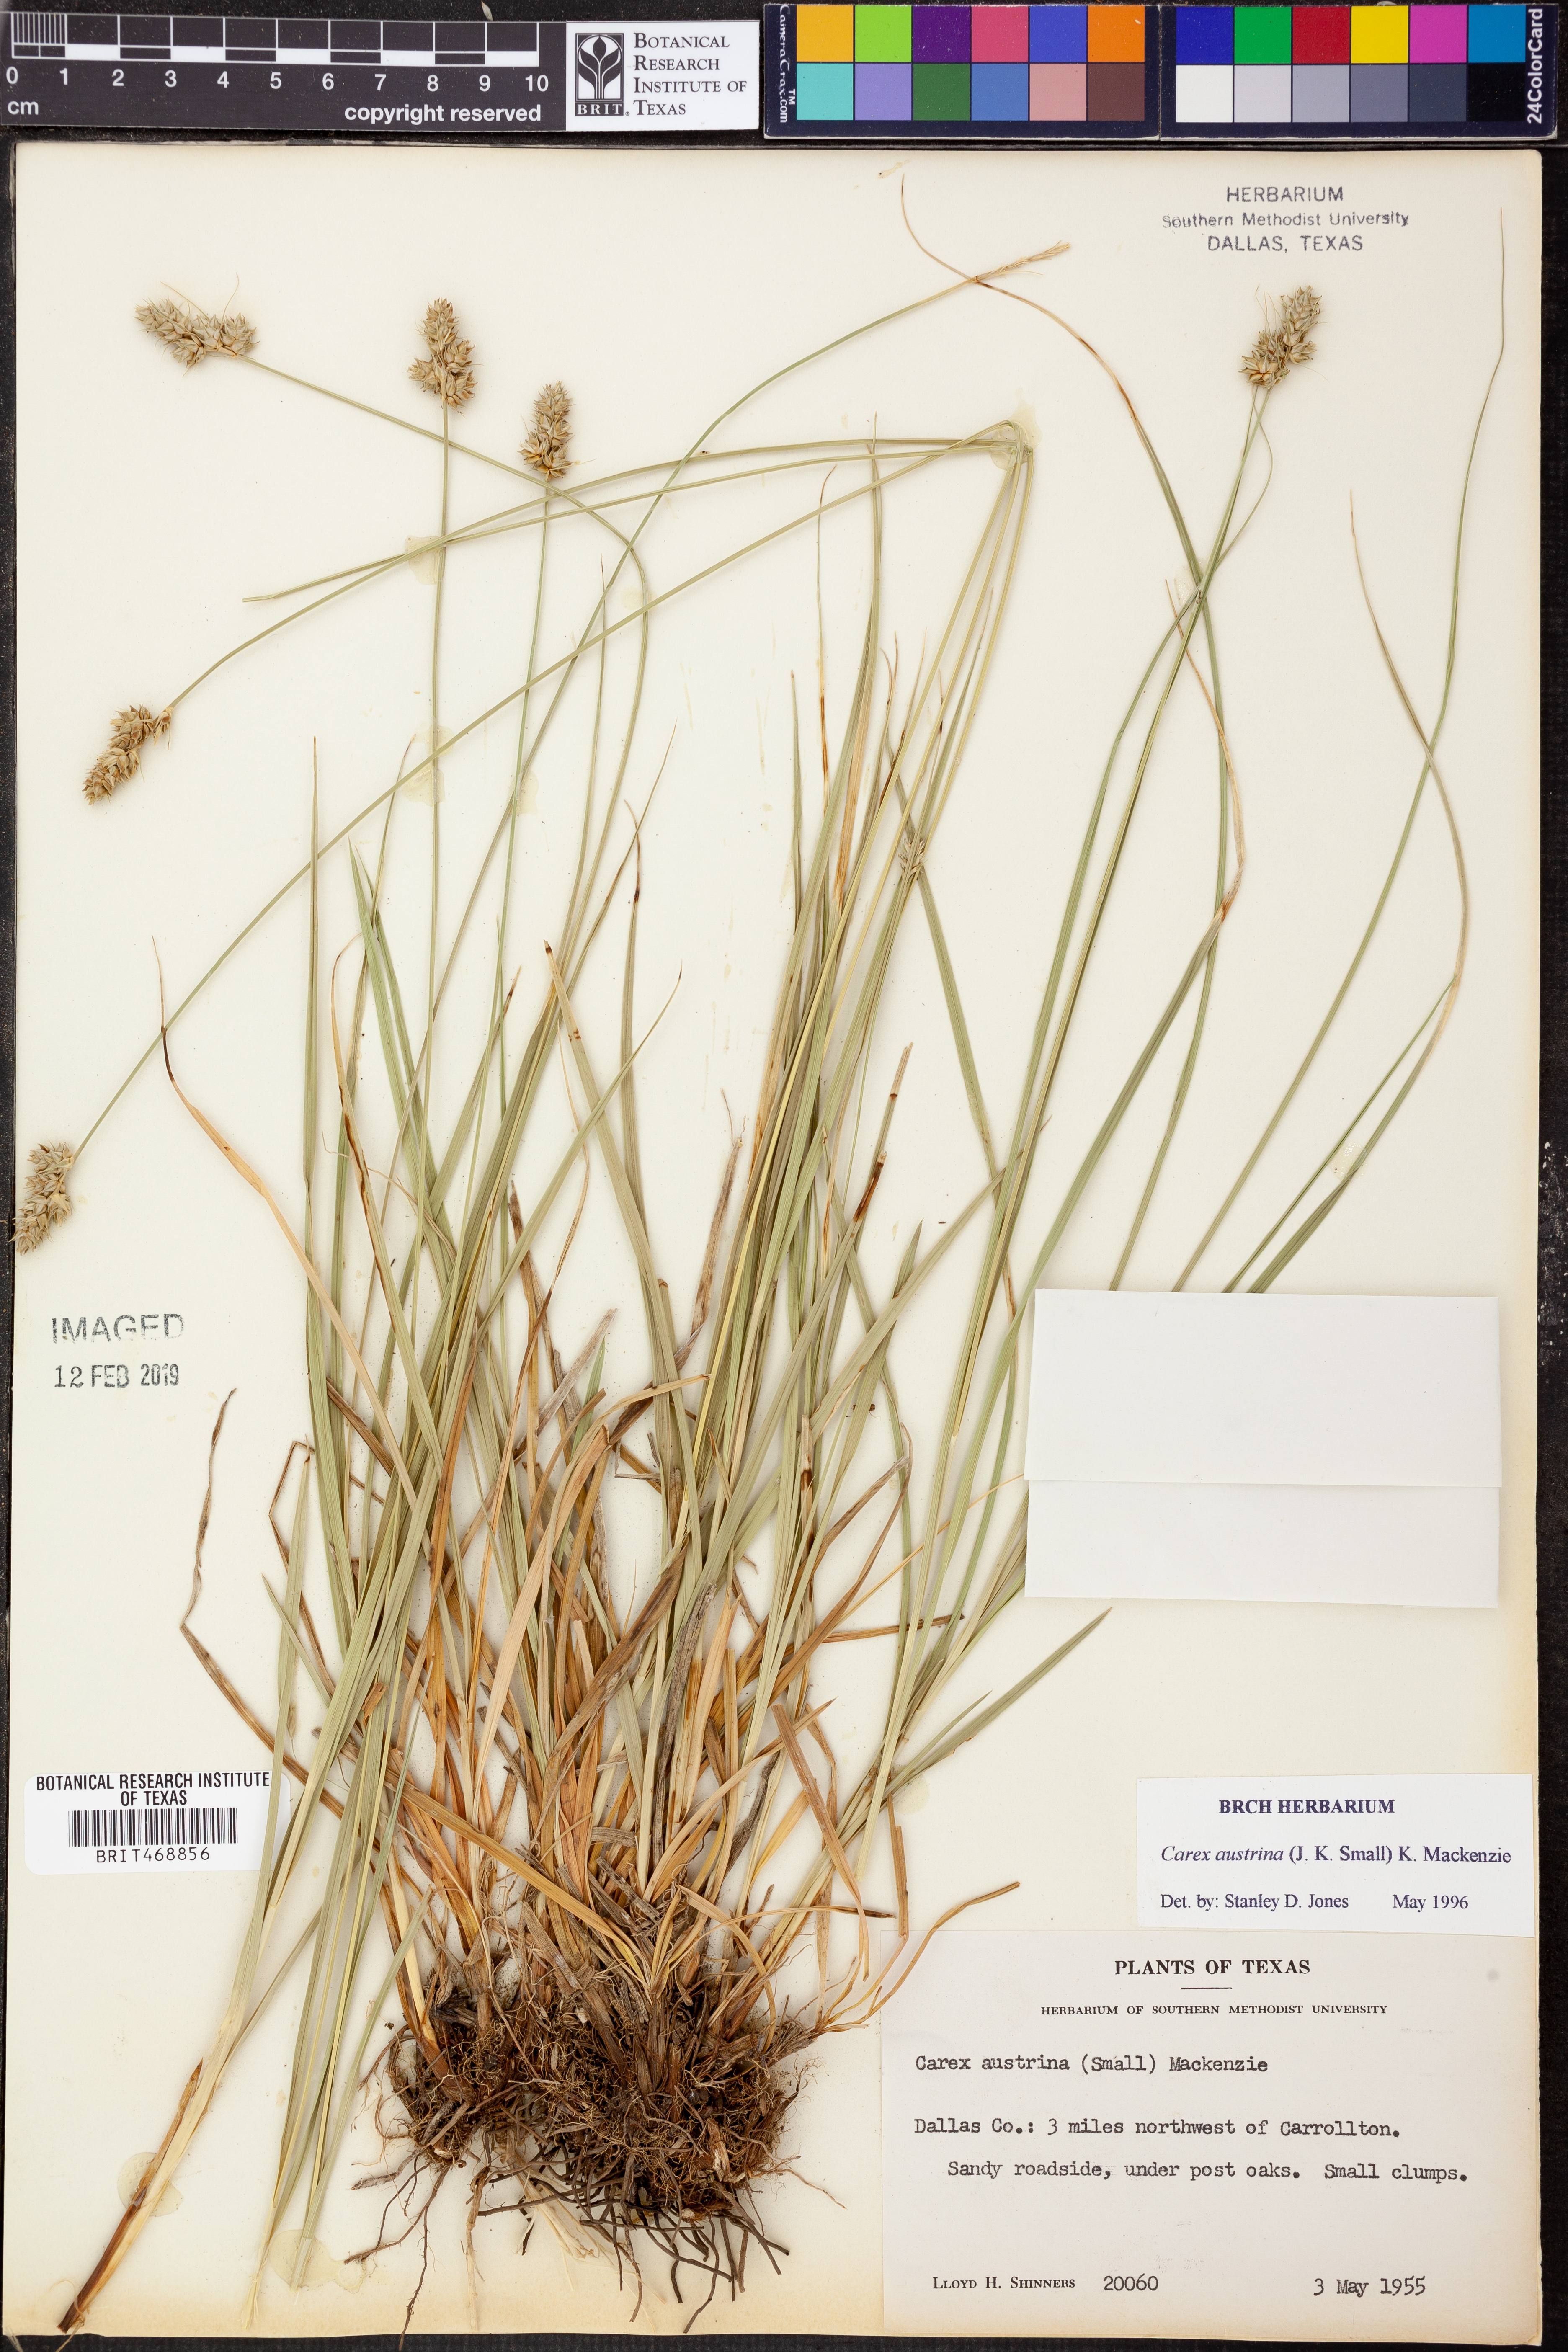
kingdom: Plantae
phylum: Tracheophyta
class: Liliopsida
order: Poales
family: Cyperaceae
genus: Carex
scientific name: Carex austrina
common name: Southern sedge
